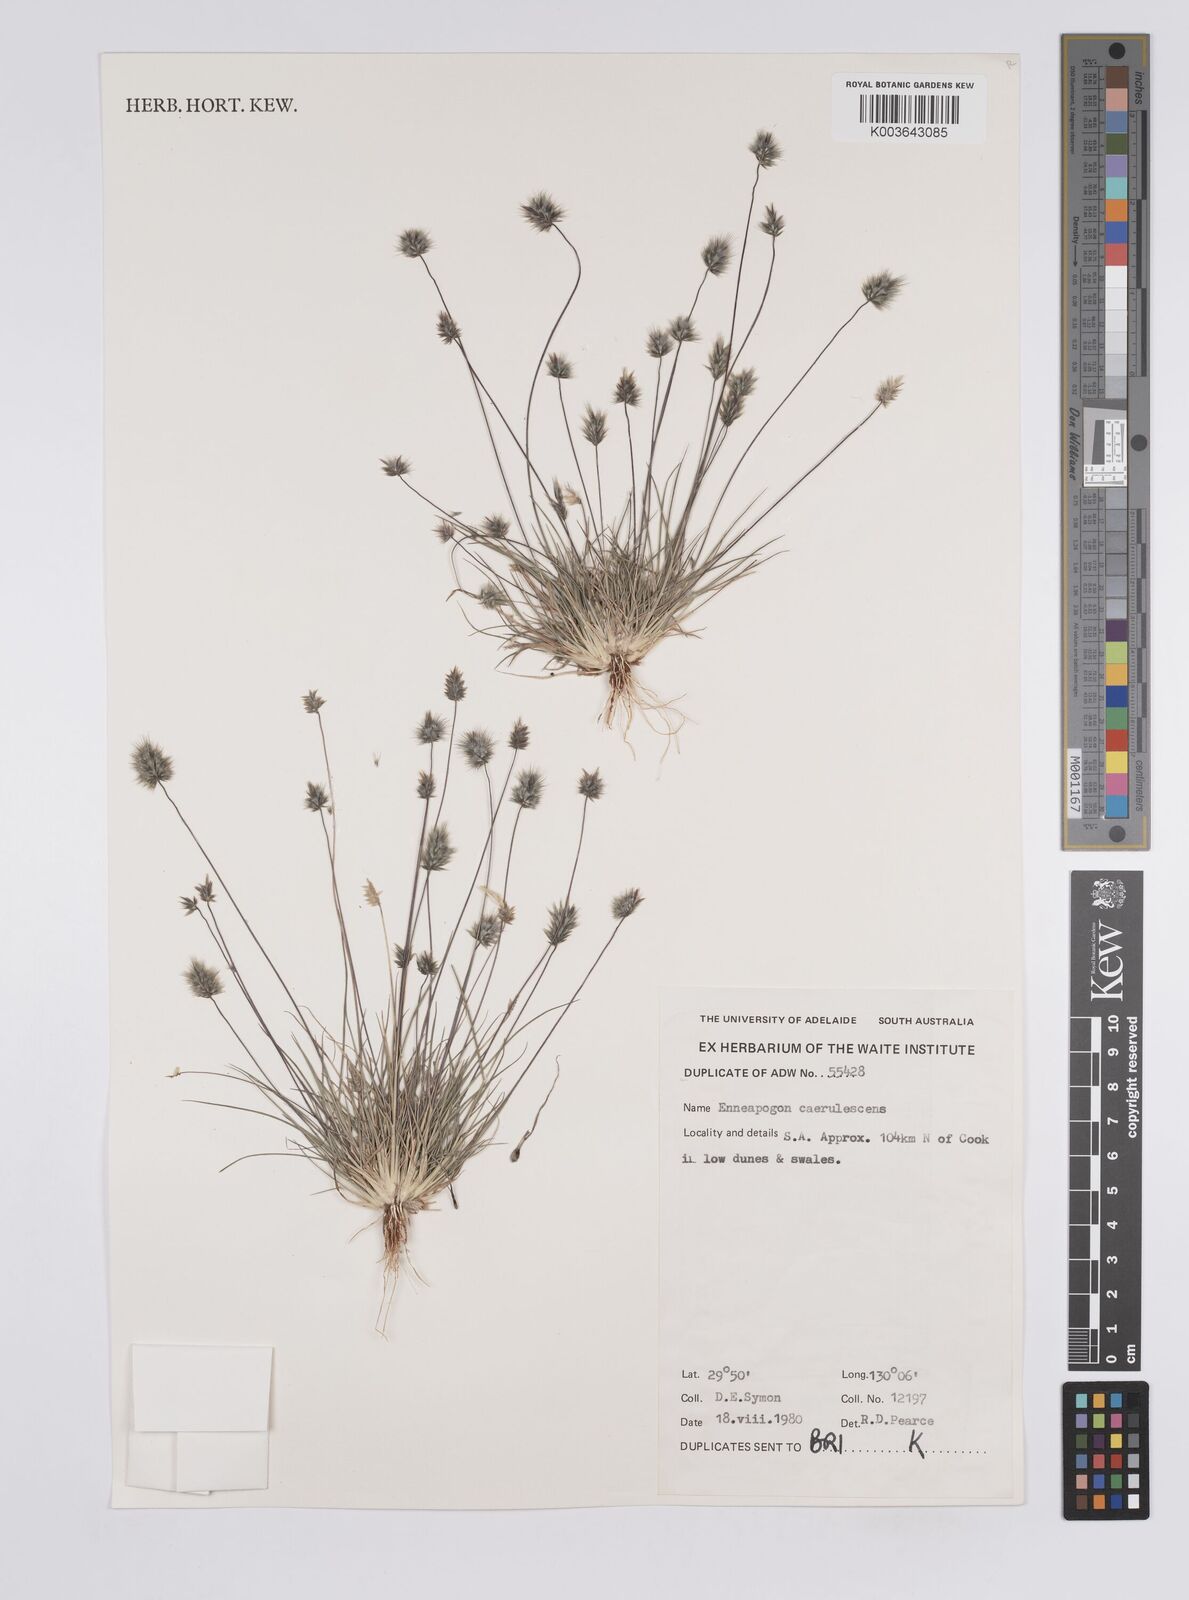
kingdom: Plantae
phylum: Tracheophyta
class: Liliopsida
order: Poales
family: Poaceae
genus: Enneapogon
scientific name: Enneapogon caerulescens
